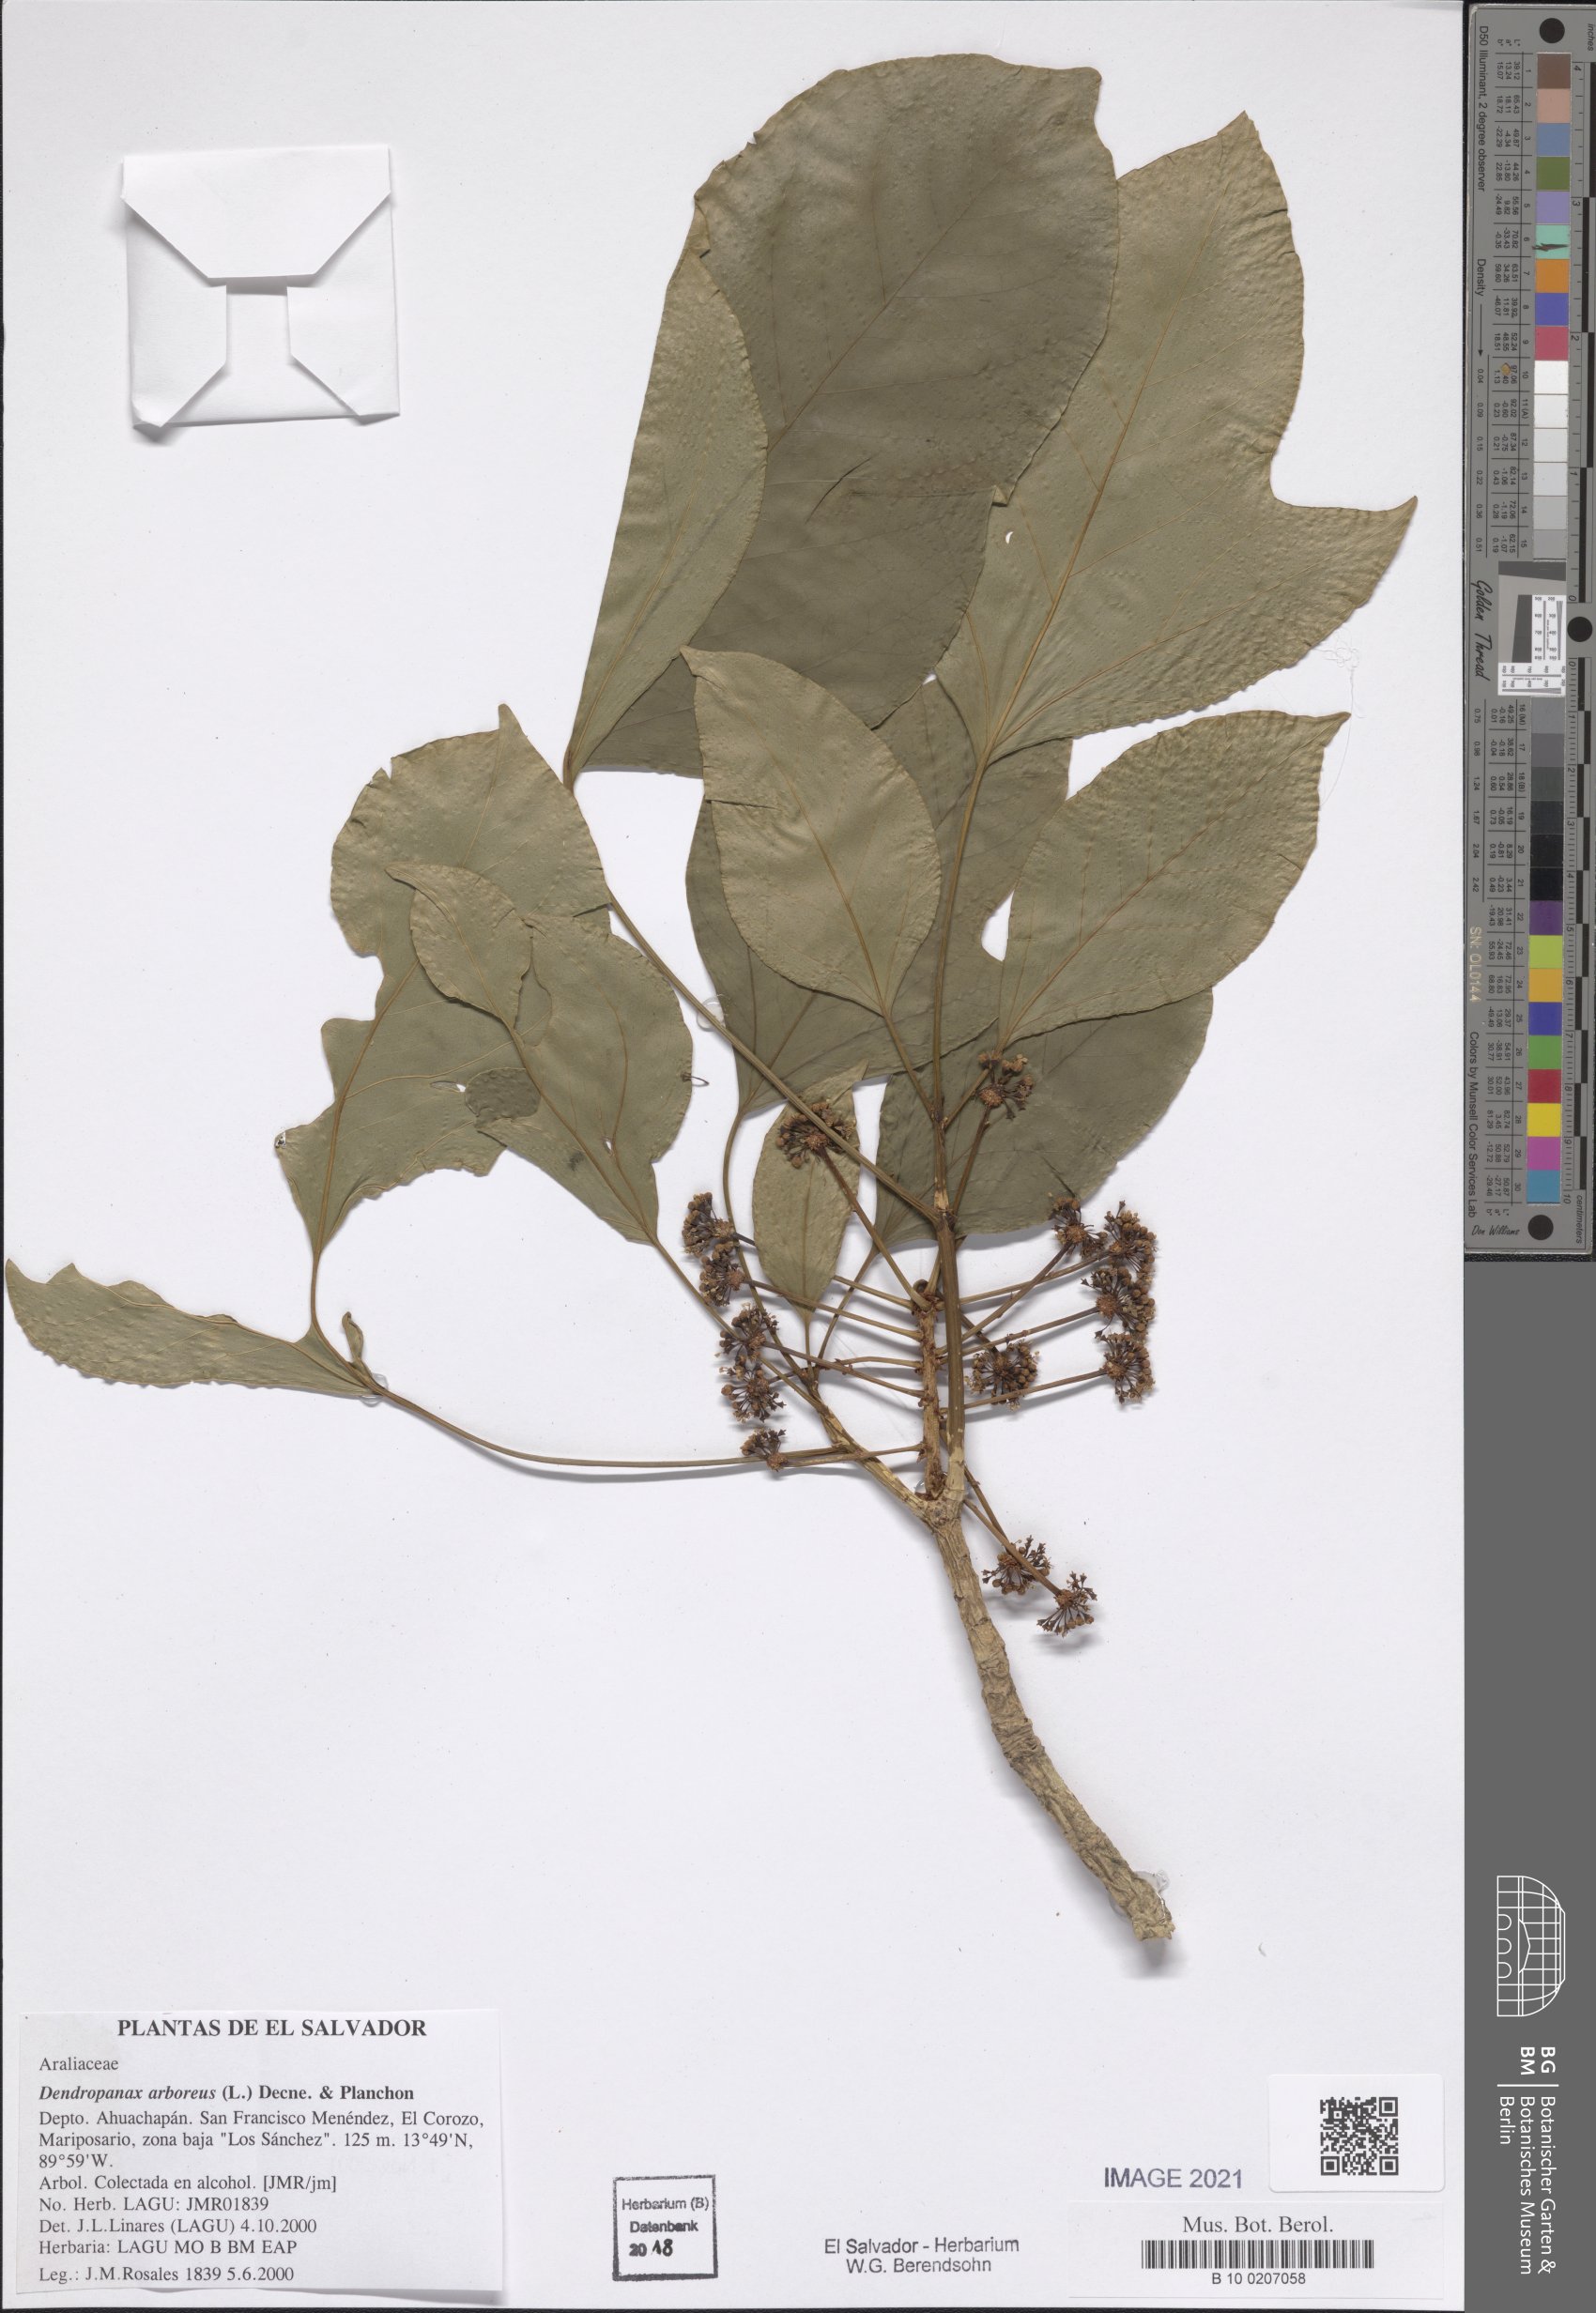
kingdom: Plantae
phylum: Tracheophyta
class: Magnoliopsida
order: Apiales
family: Araliaceae
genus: Dendropanax
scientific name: Dendropanax arboreus
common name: Potato-wood
